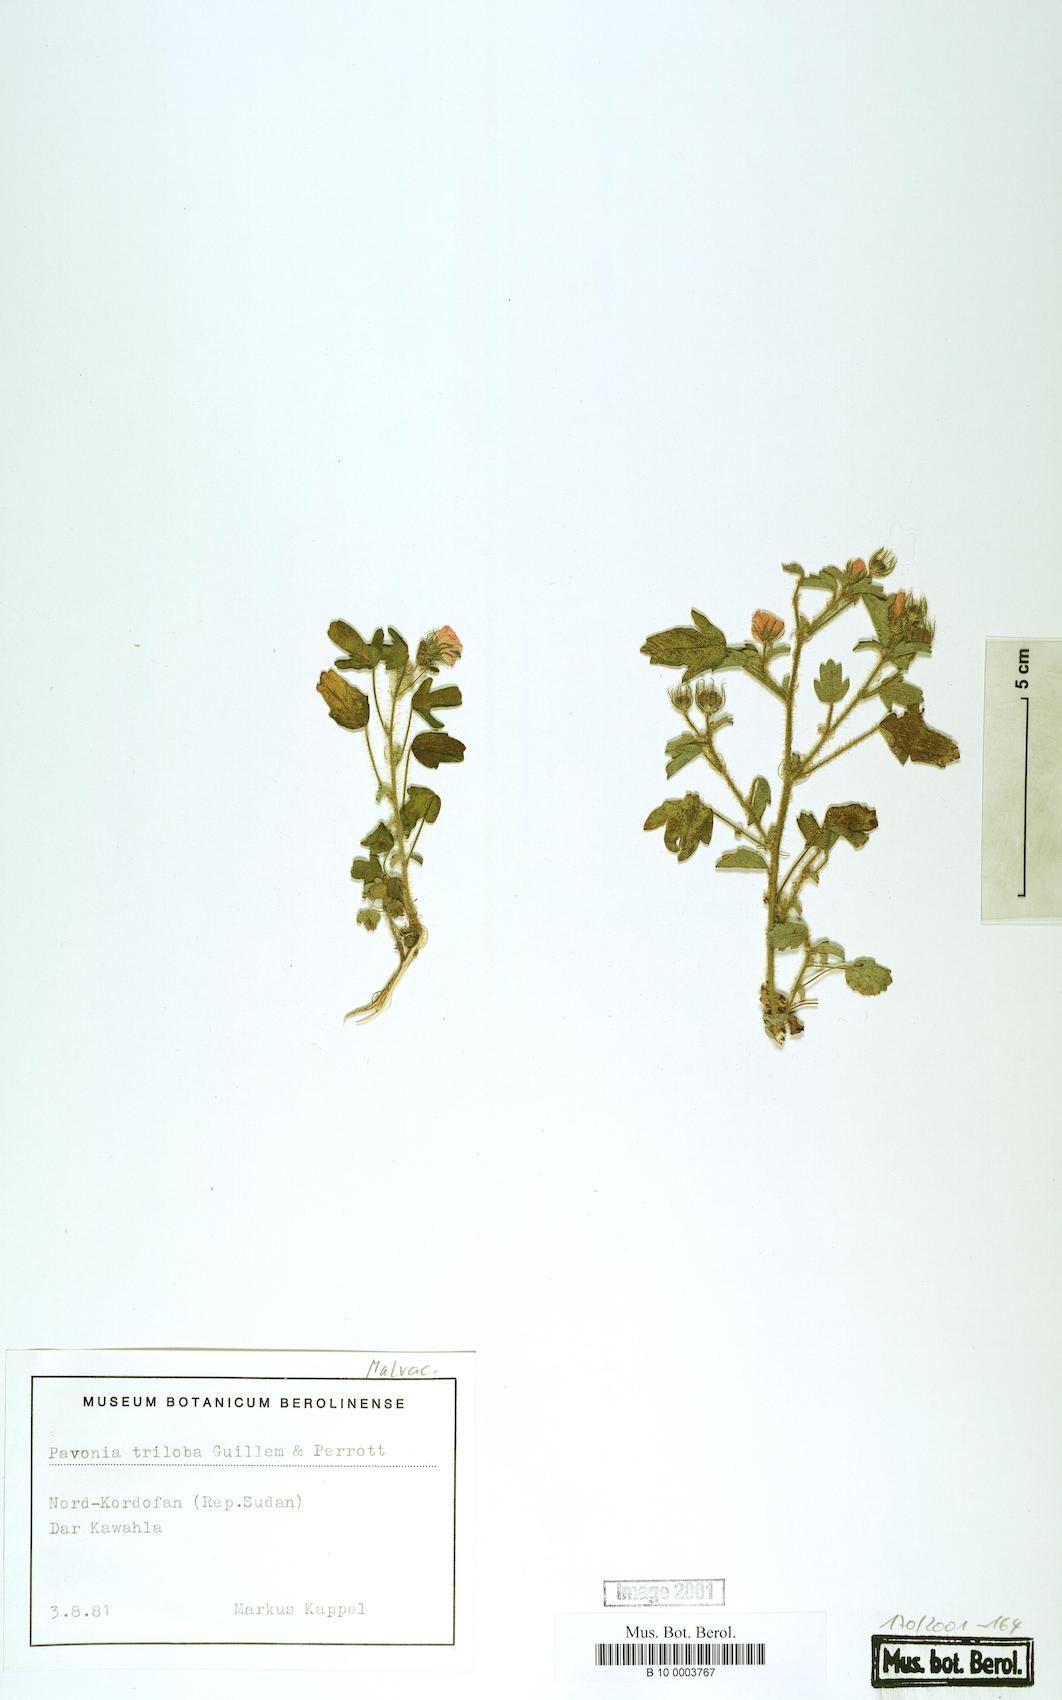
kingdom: Plantae
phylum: Tracheophyta
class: Magnoliopsida
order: Malvales
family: Malvaceae
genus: Pavonia
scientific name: Pavonia triloba
